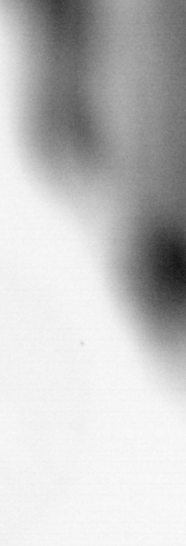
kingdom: Animalia
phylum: Chordata
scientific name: Chordata
